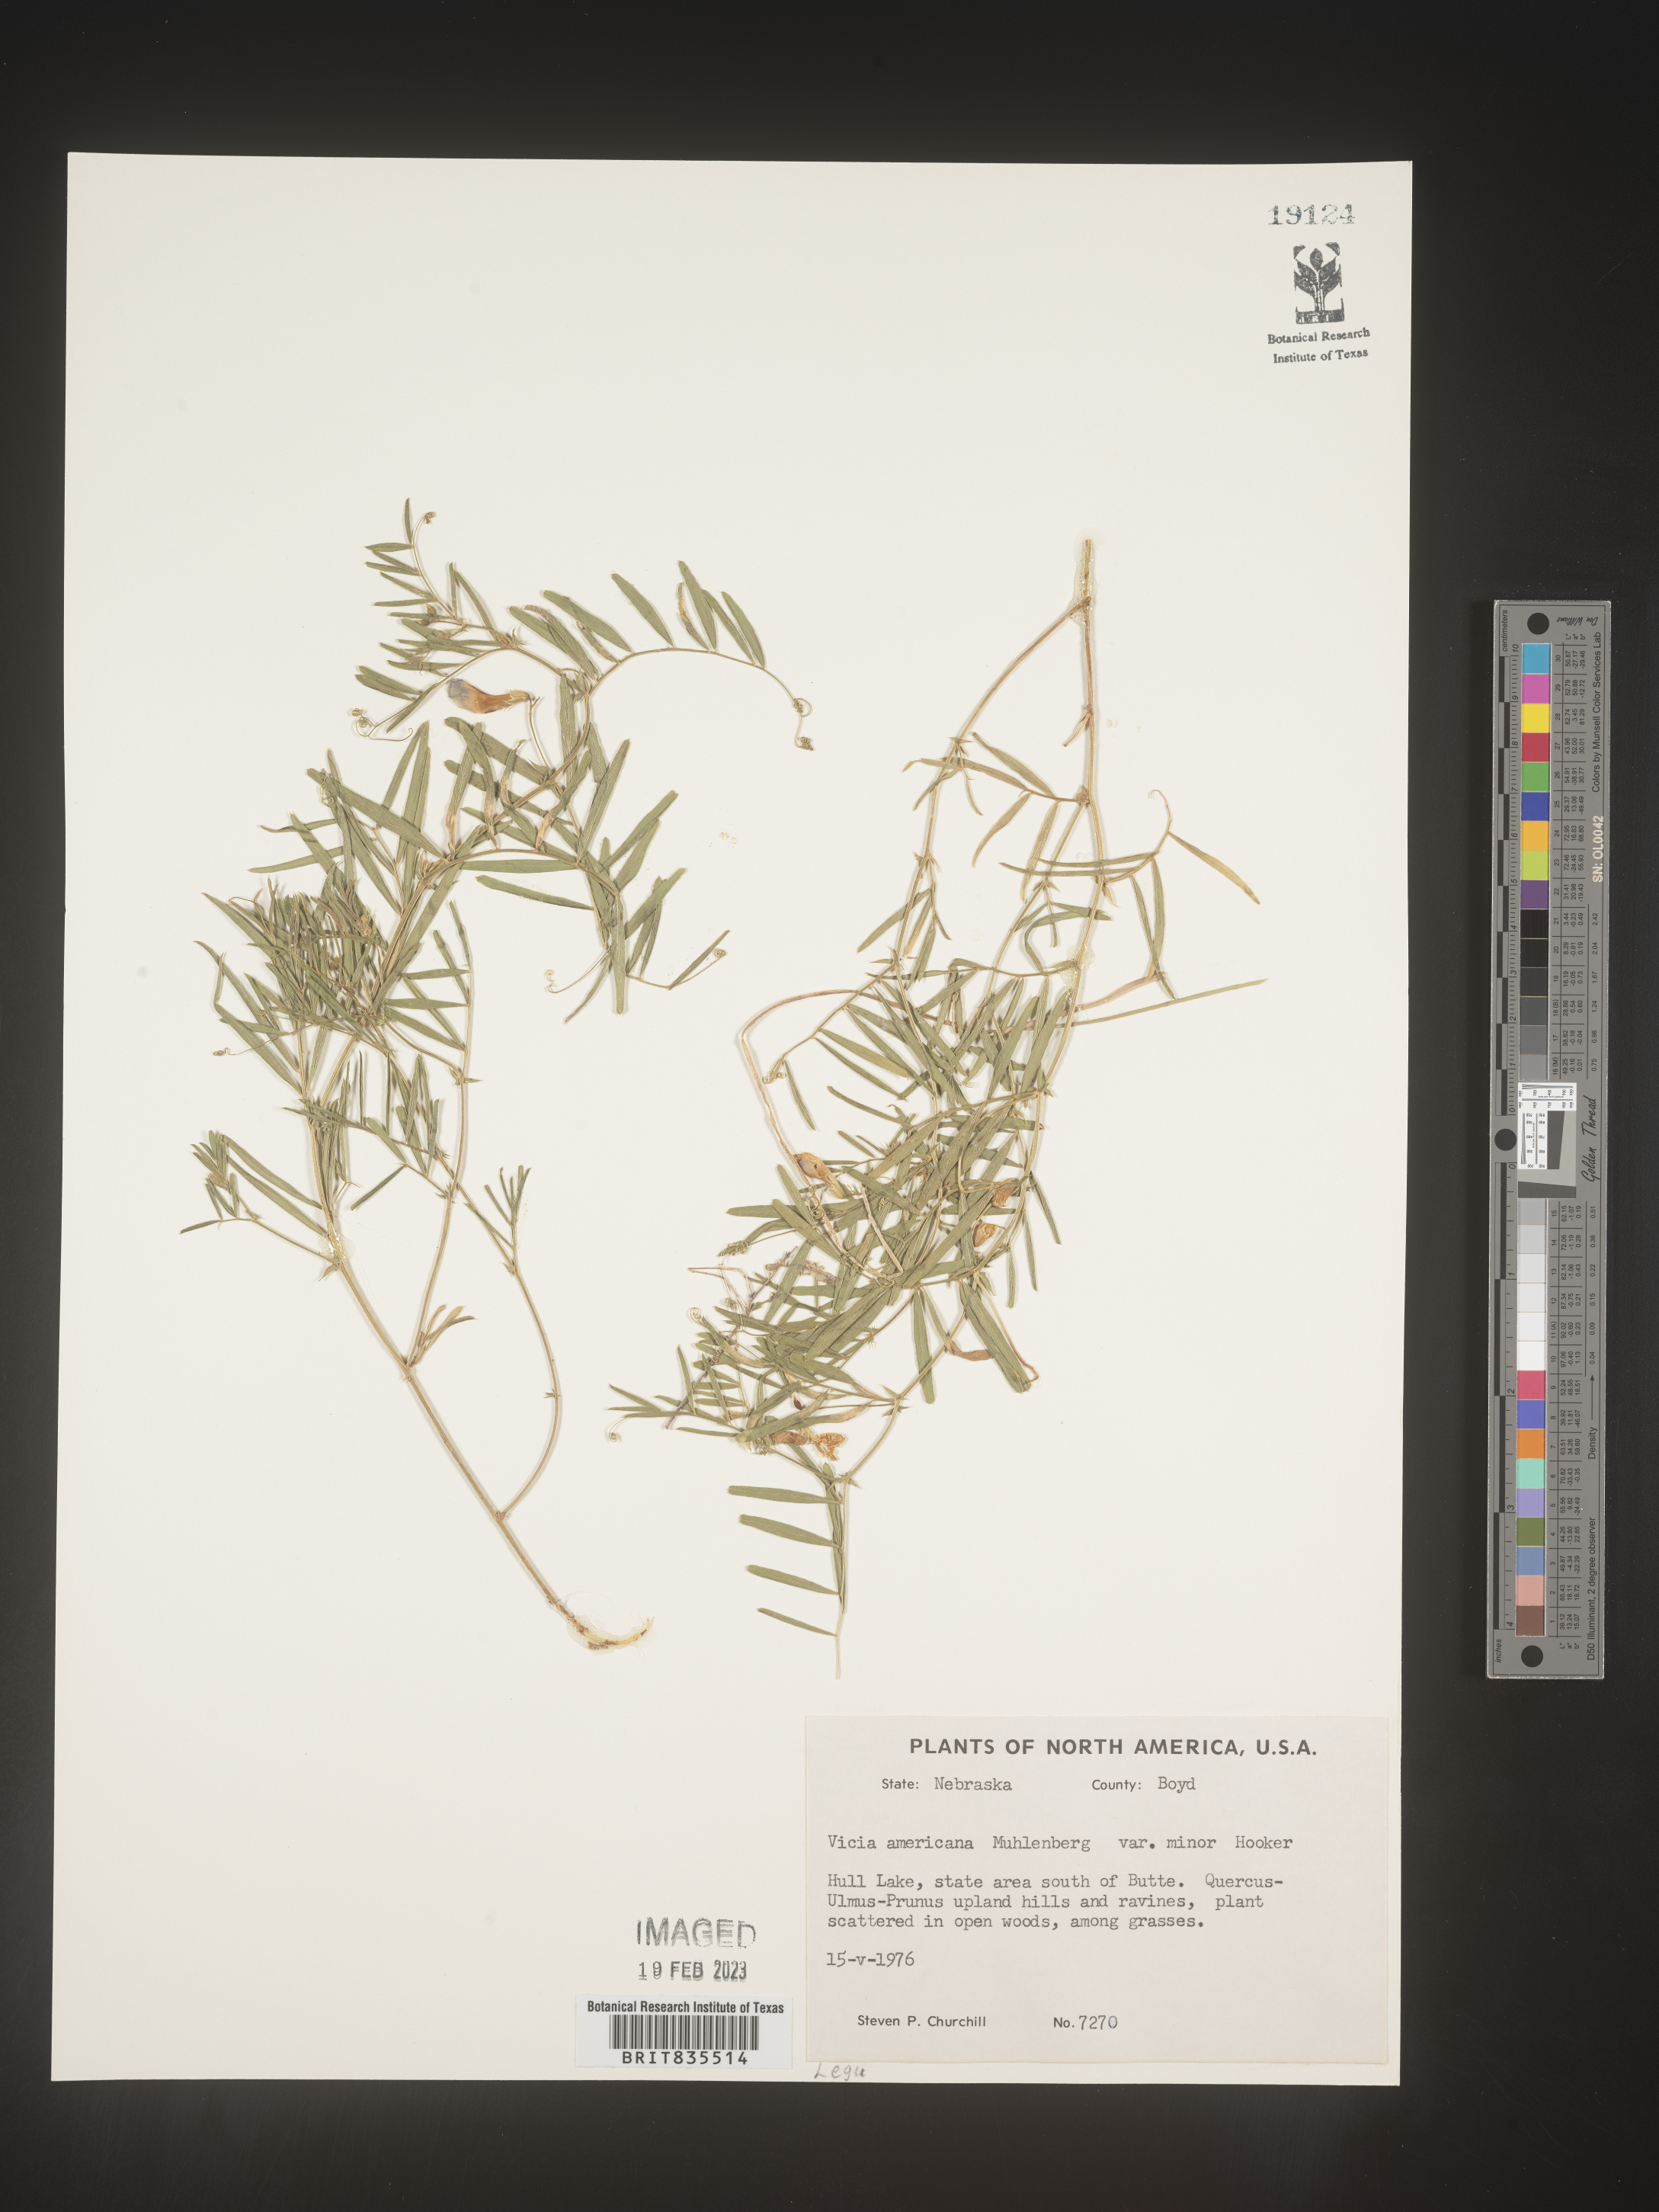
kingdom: Plantae
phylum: Tracheophyta
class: Magnoliopsida
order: Fabales
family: Fabaceae
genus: Vicia
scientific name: Vicia americana
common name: American vetch
